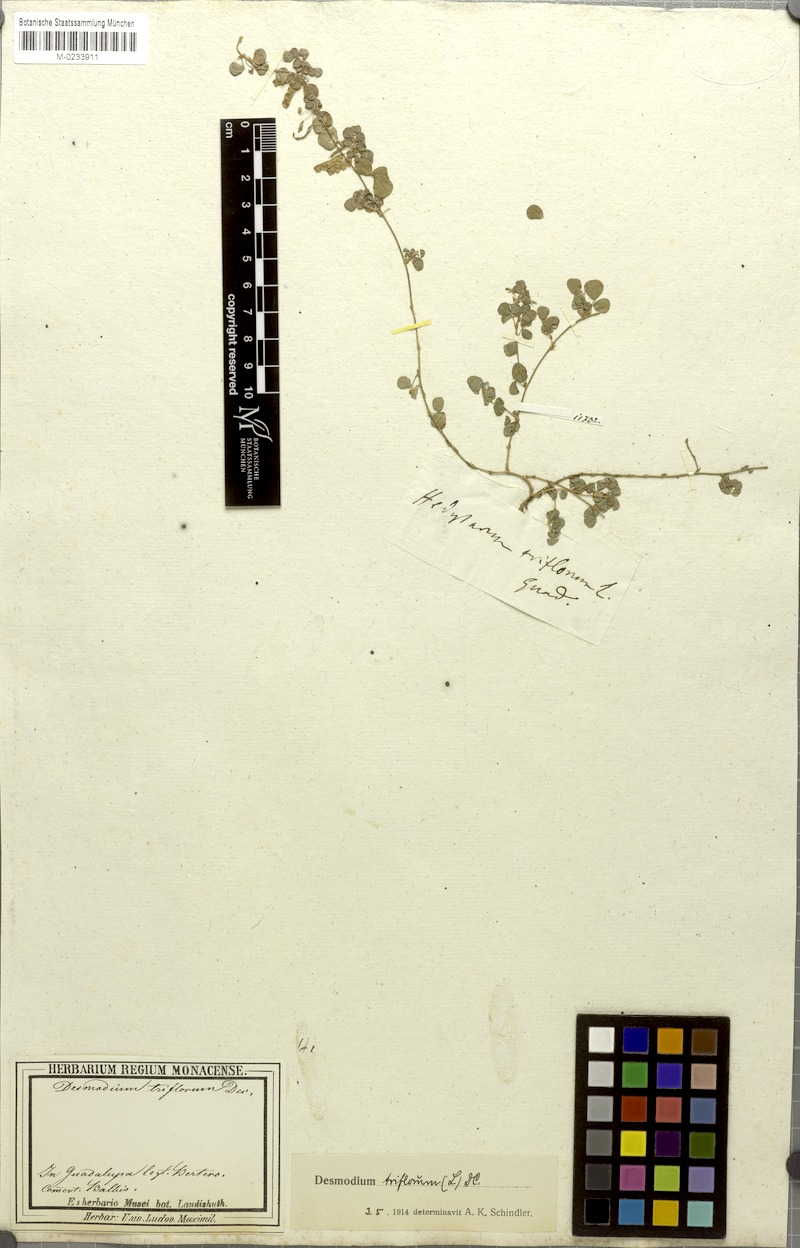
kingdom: Plantae
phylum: Tracheophyta
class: Magnoliopsida
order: Fabales
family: Fabaceae
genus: Grona
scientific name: Grona triflora
